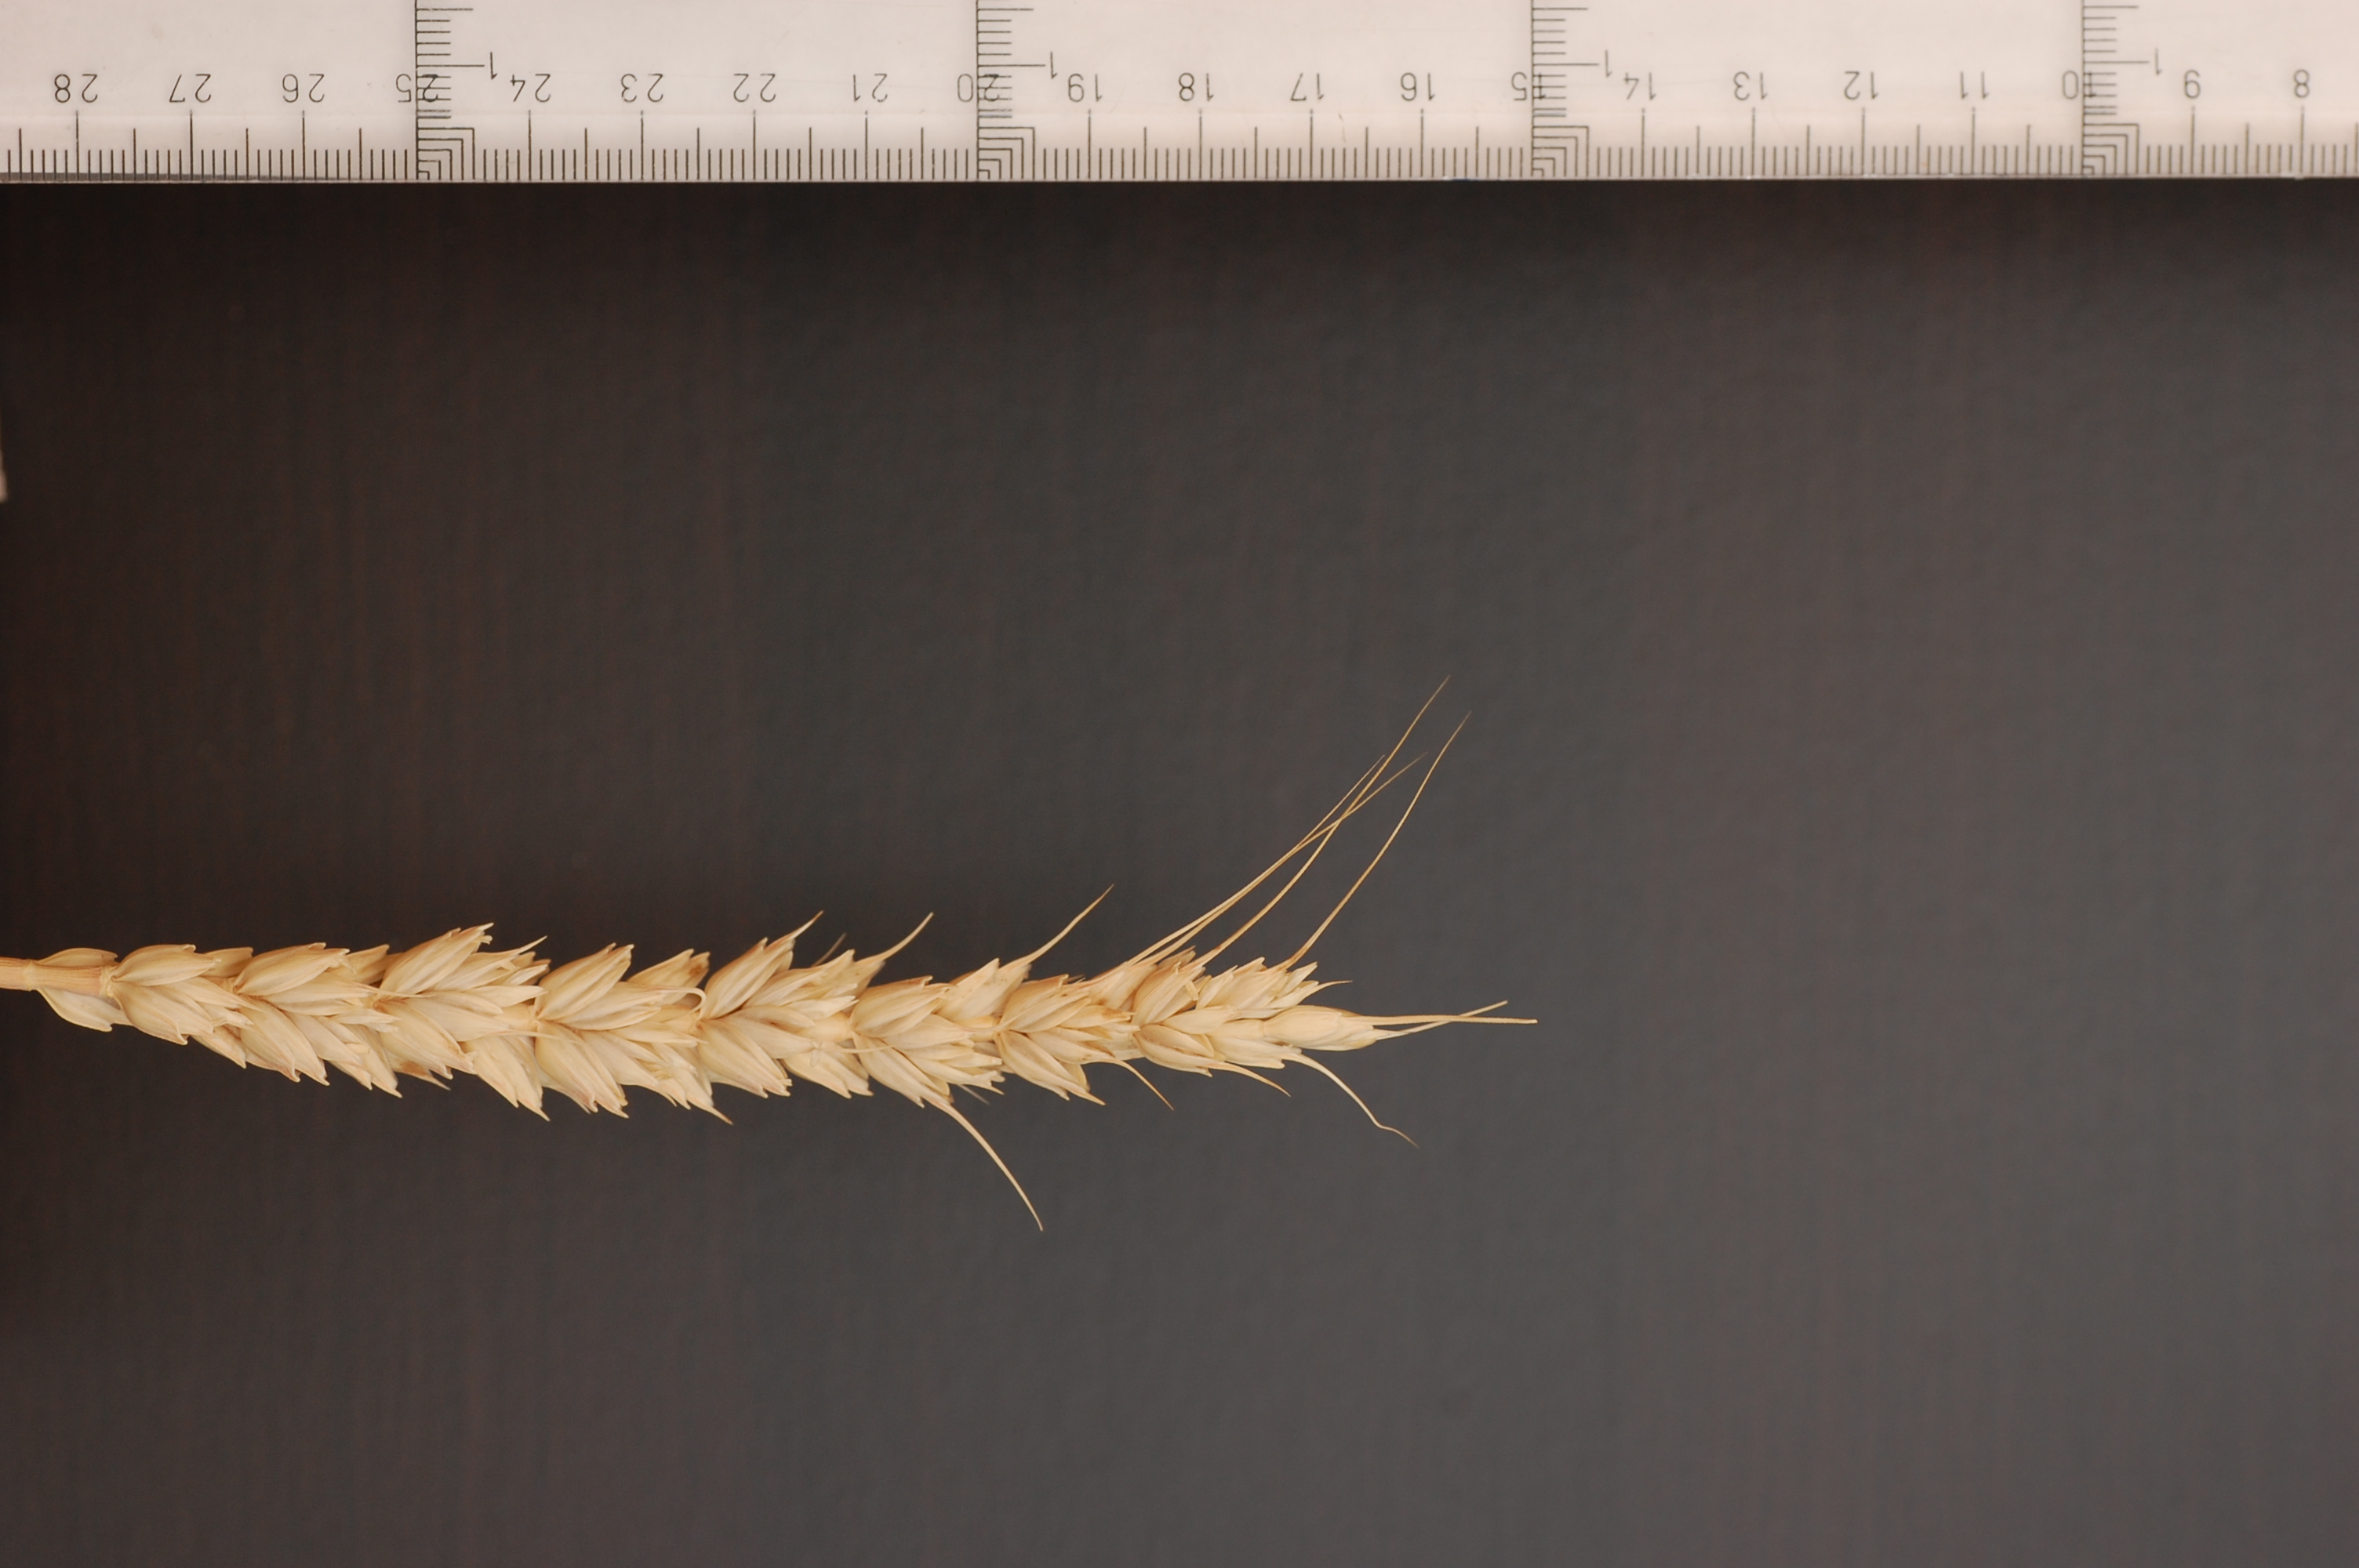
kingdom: Plantae
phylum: Tracheophyta
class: Liliopsida
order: Poales
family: Poaceae
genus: Triticum
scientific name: Triticum aestivum
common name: Common wheat
